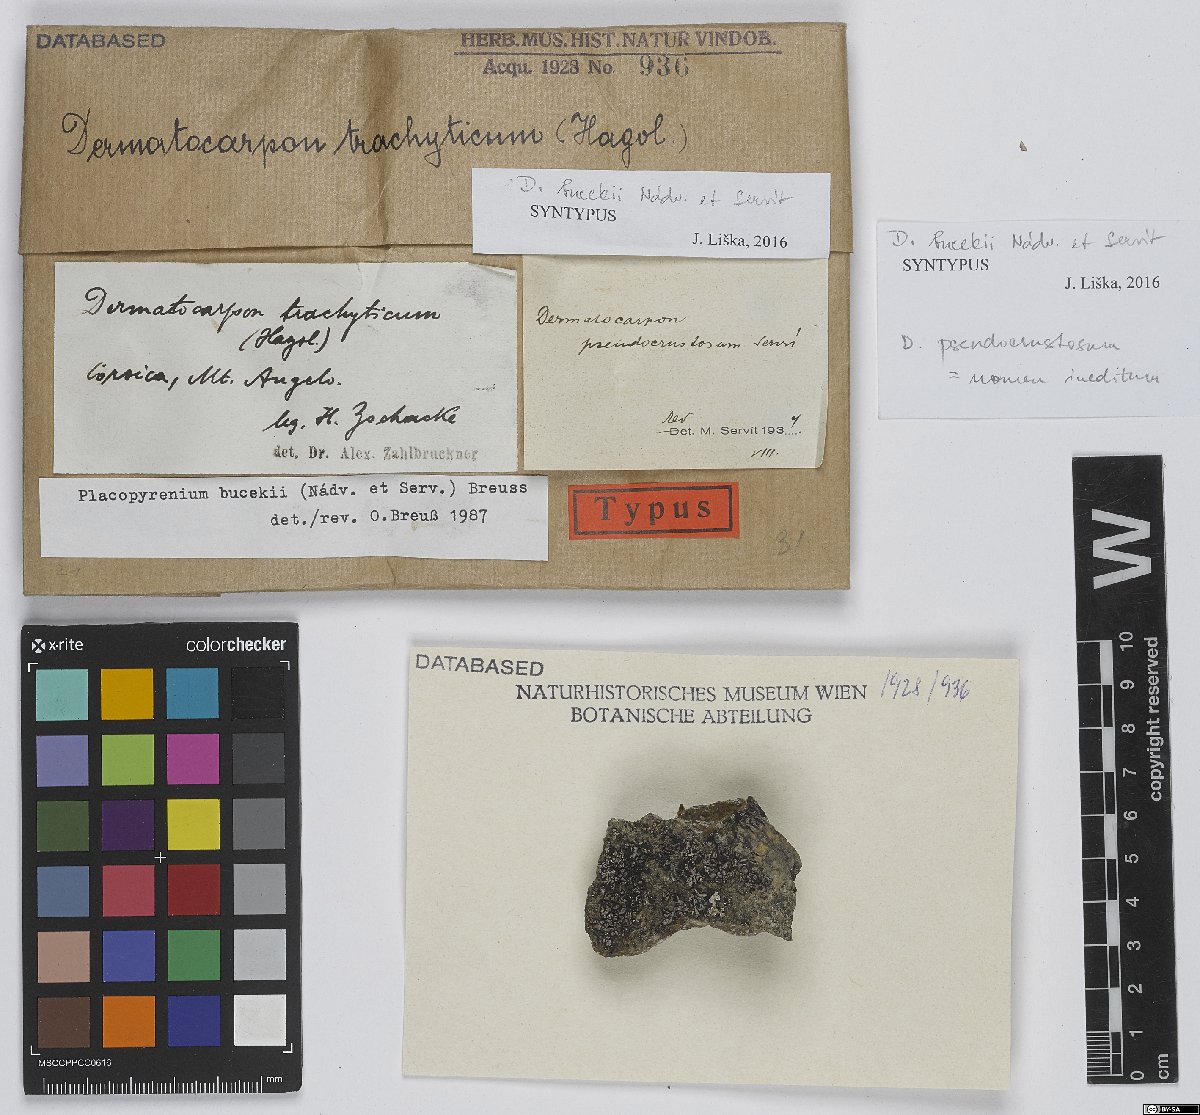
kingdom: Fungi
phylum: Ascomycota
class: Eurotiomycetes
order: Verrucariales
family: Verrucariaceae
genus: Placopyrenium
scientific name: Placopyrenium bucekii
